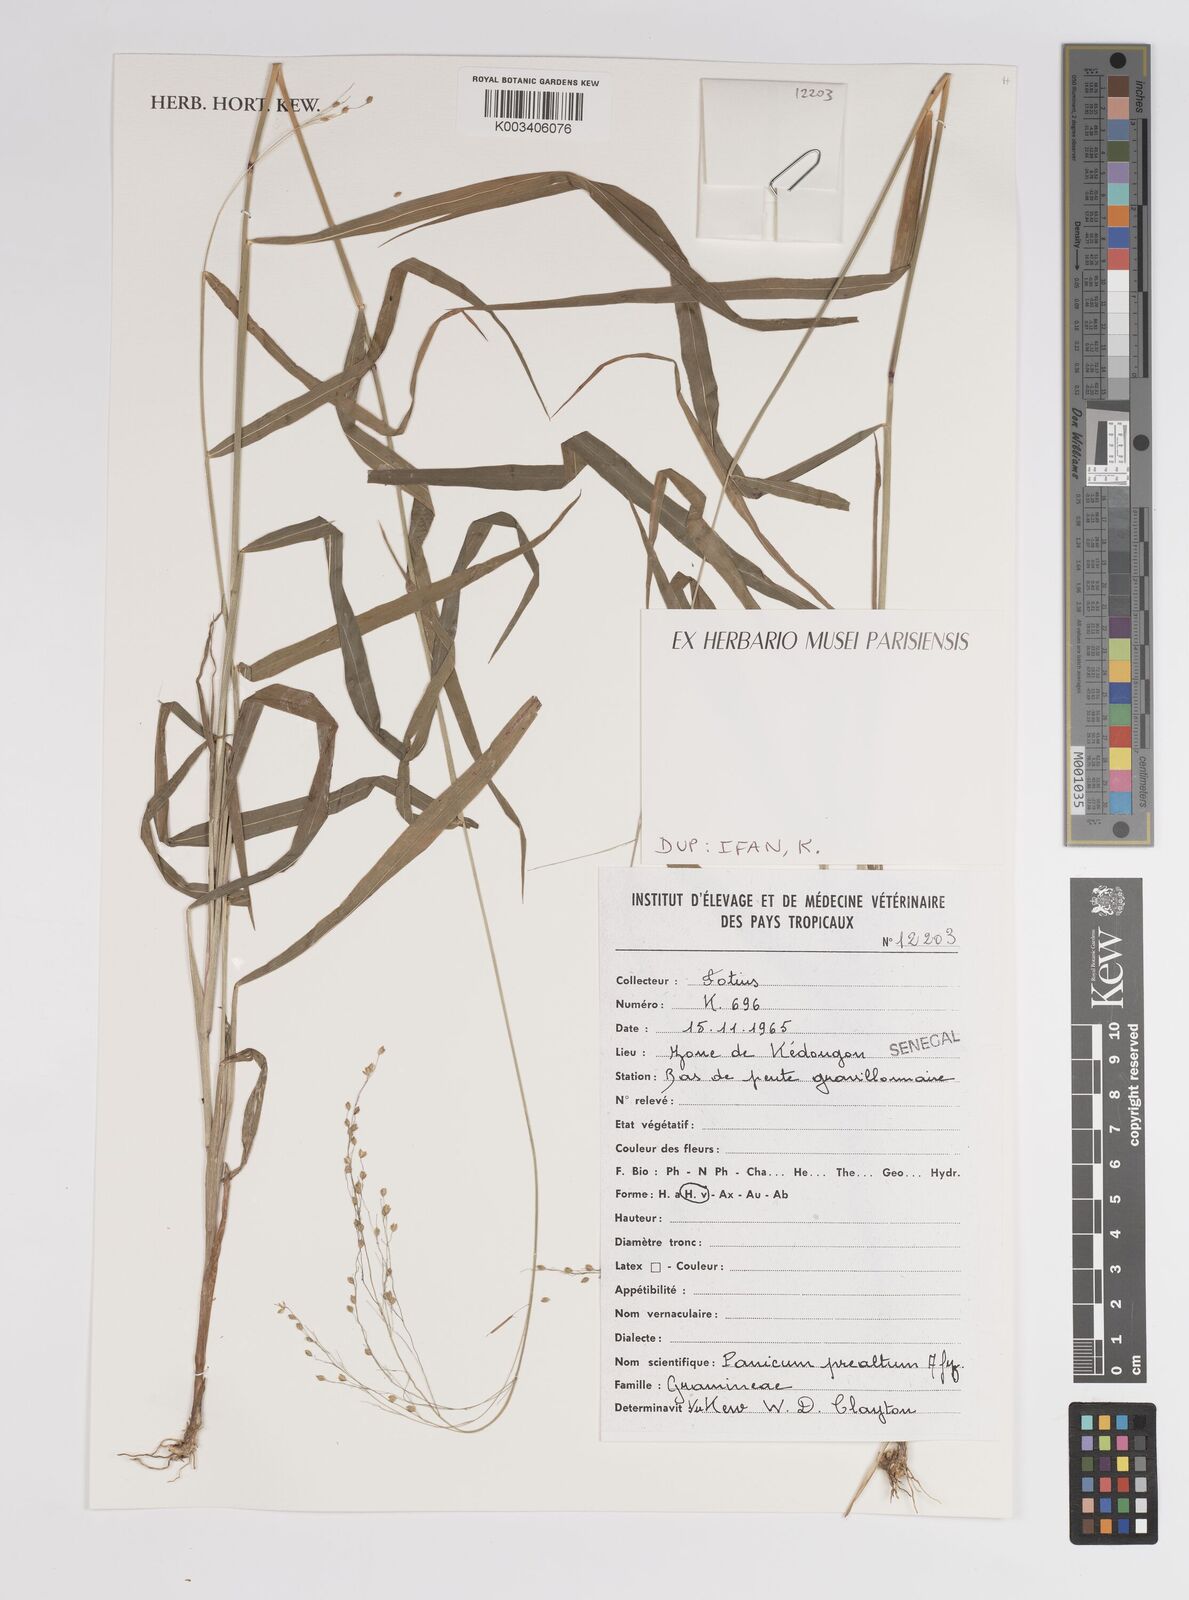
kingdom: Plantae
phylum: Tracheophyta
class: Liliopsida
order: Poales
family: Poaceae
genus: Trichanthecium
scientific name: Trichanthecium praealtum
